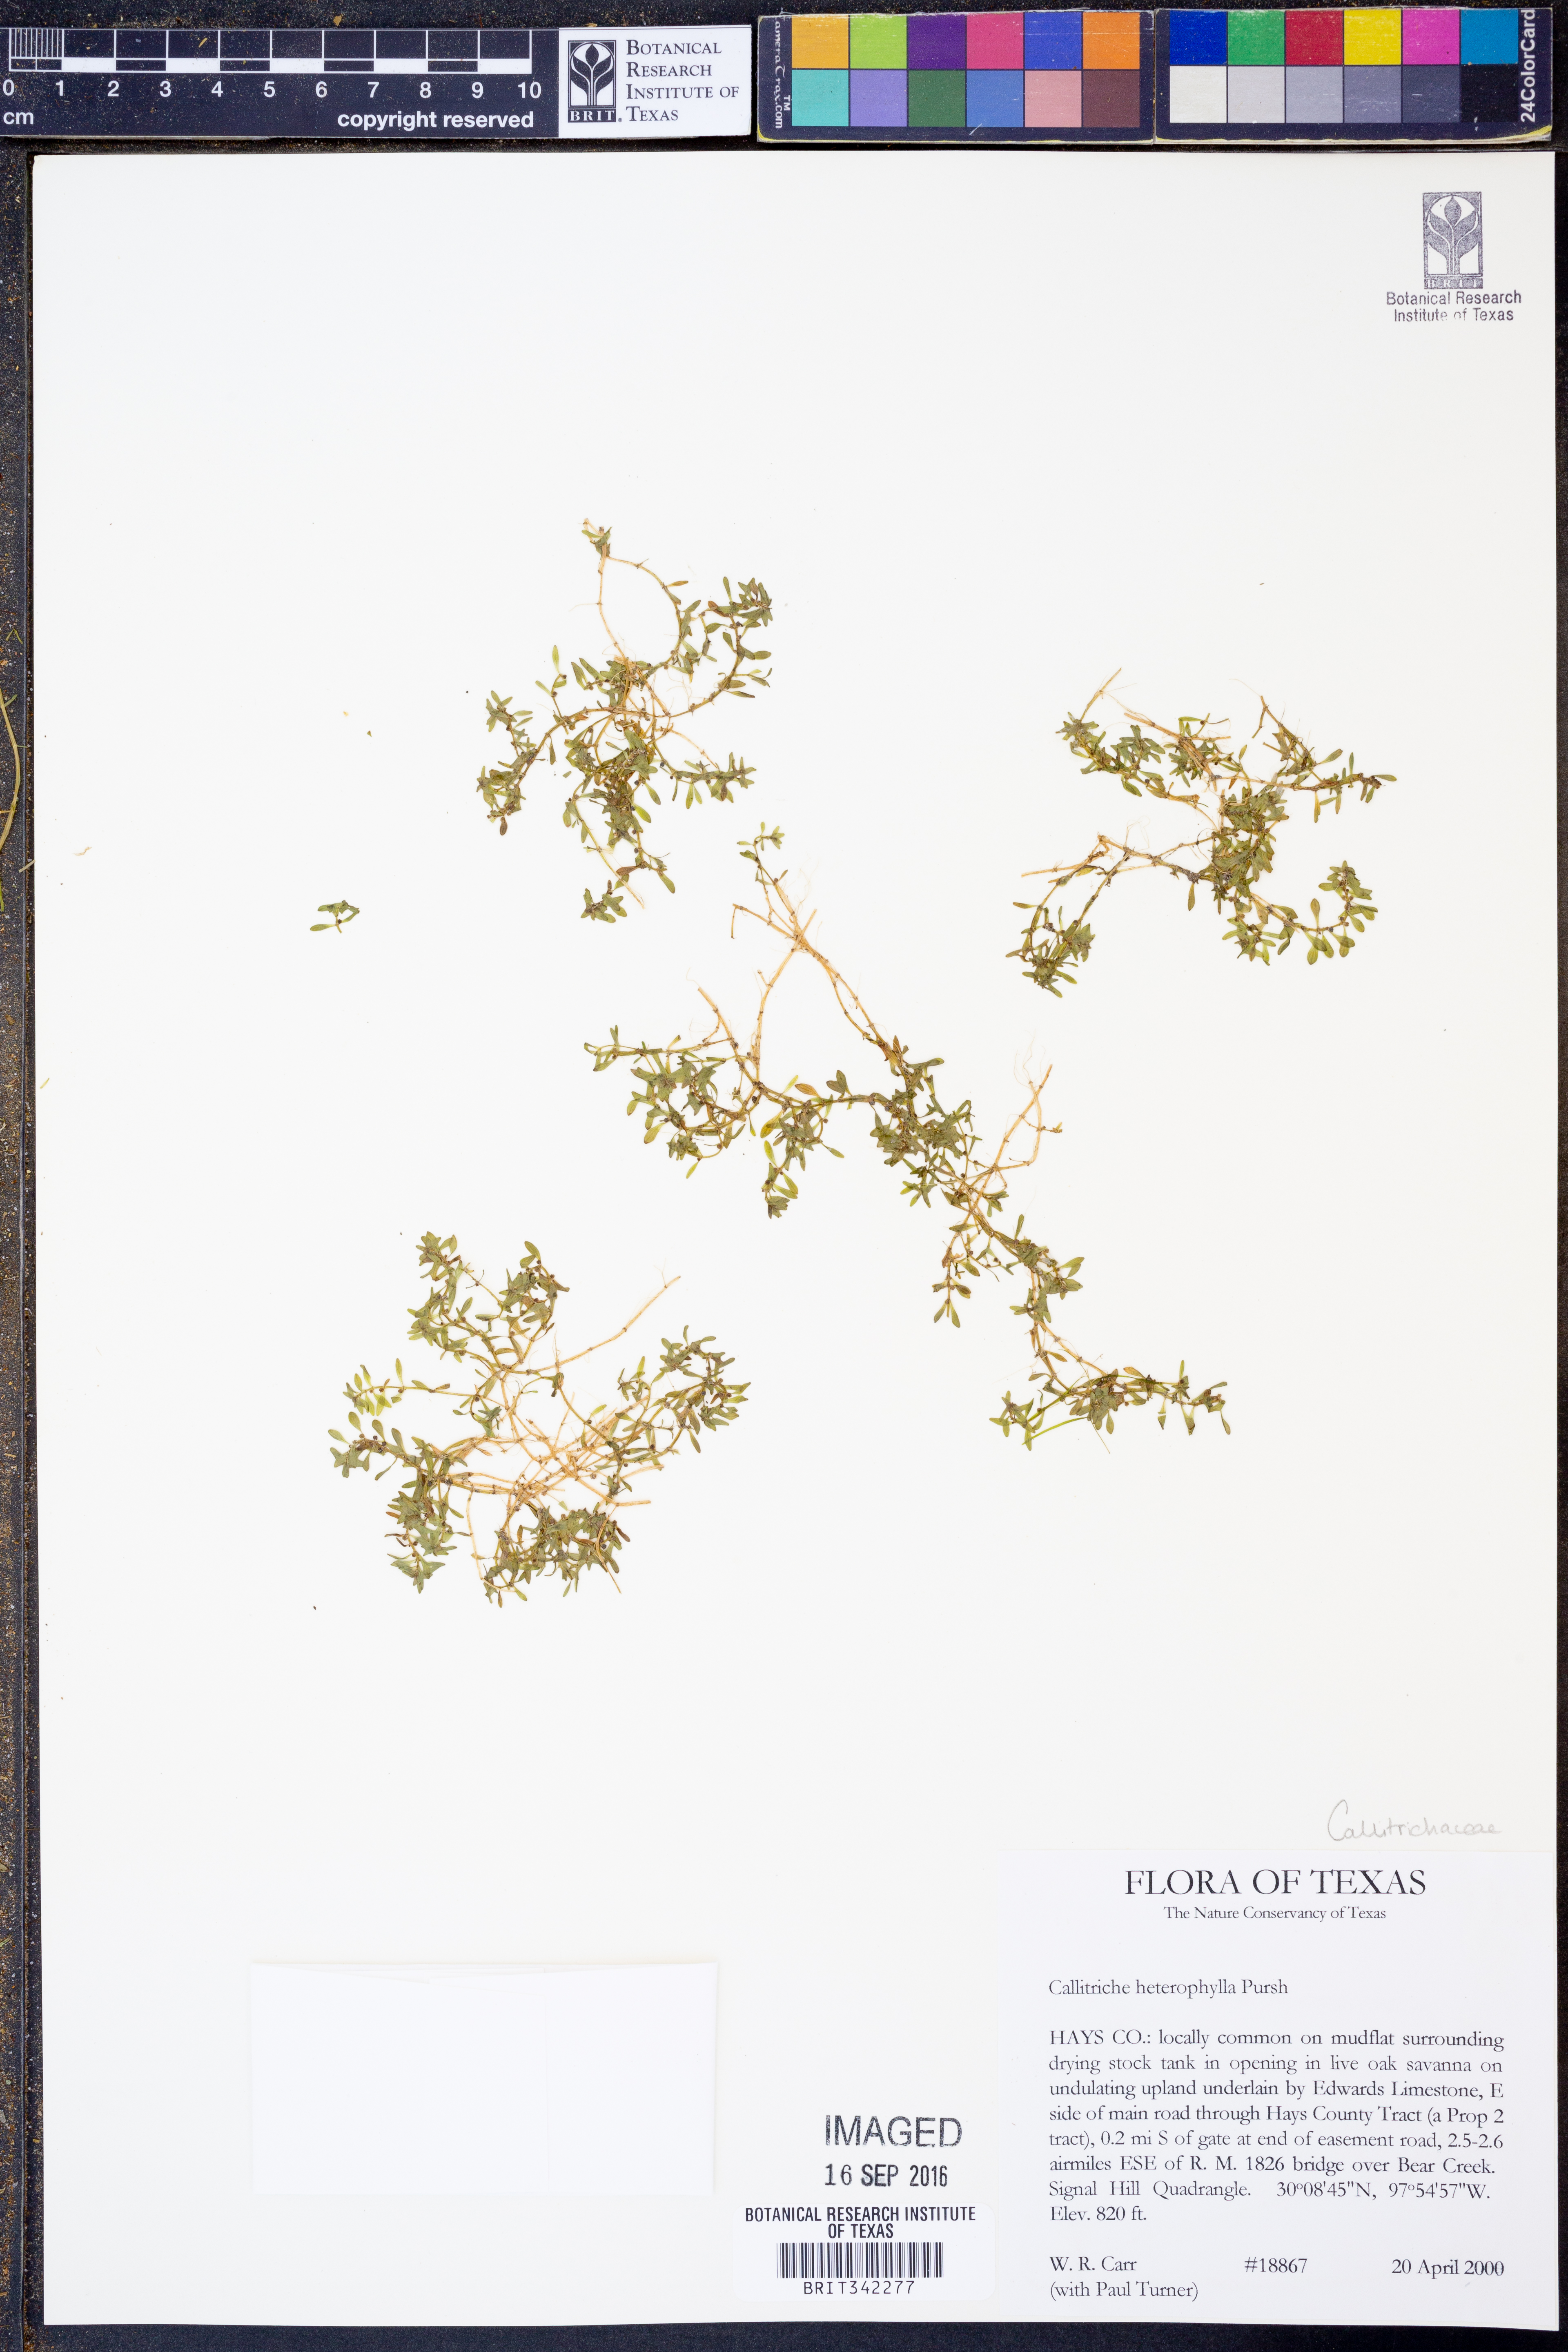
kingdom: Plantae
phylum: Tracheophyta
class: Magnoliopsida
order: Lamiales
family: Plantaginaceae
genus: Callitriche
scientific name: Callitriche heterophylla
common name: Two-headed water-starwort
